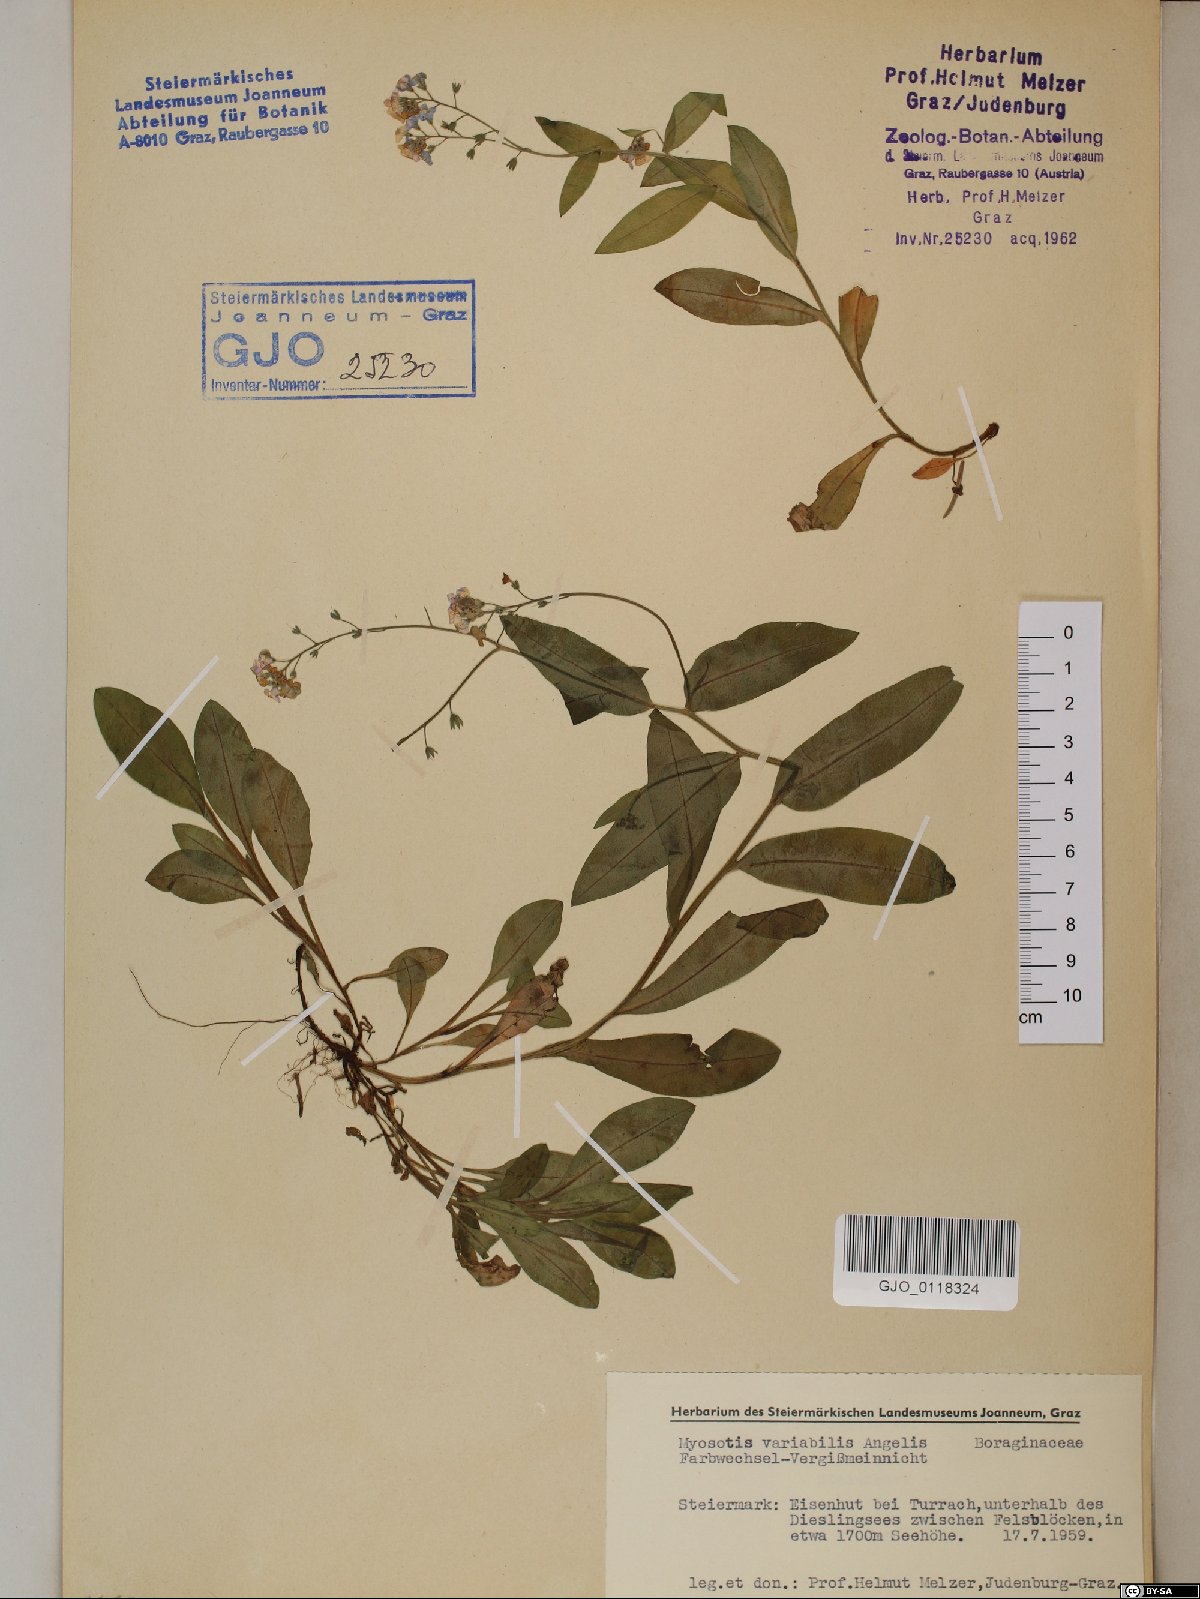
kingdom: Plantae
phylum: Tracheophyta
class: Magnoliopsida
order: Boraginales
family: Boraginaceae
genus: Myosotis
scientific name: Myosotis decumbens
